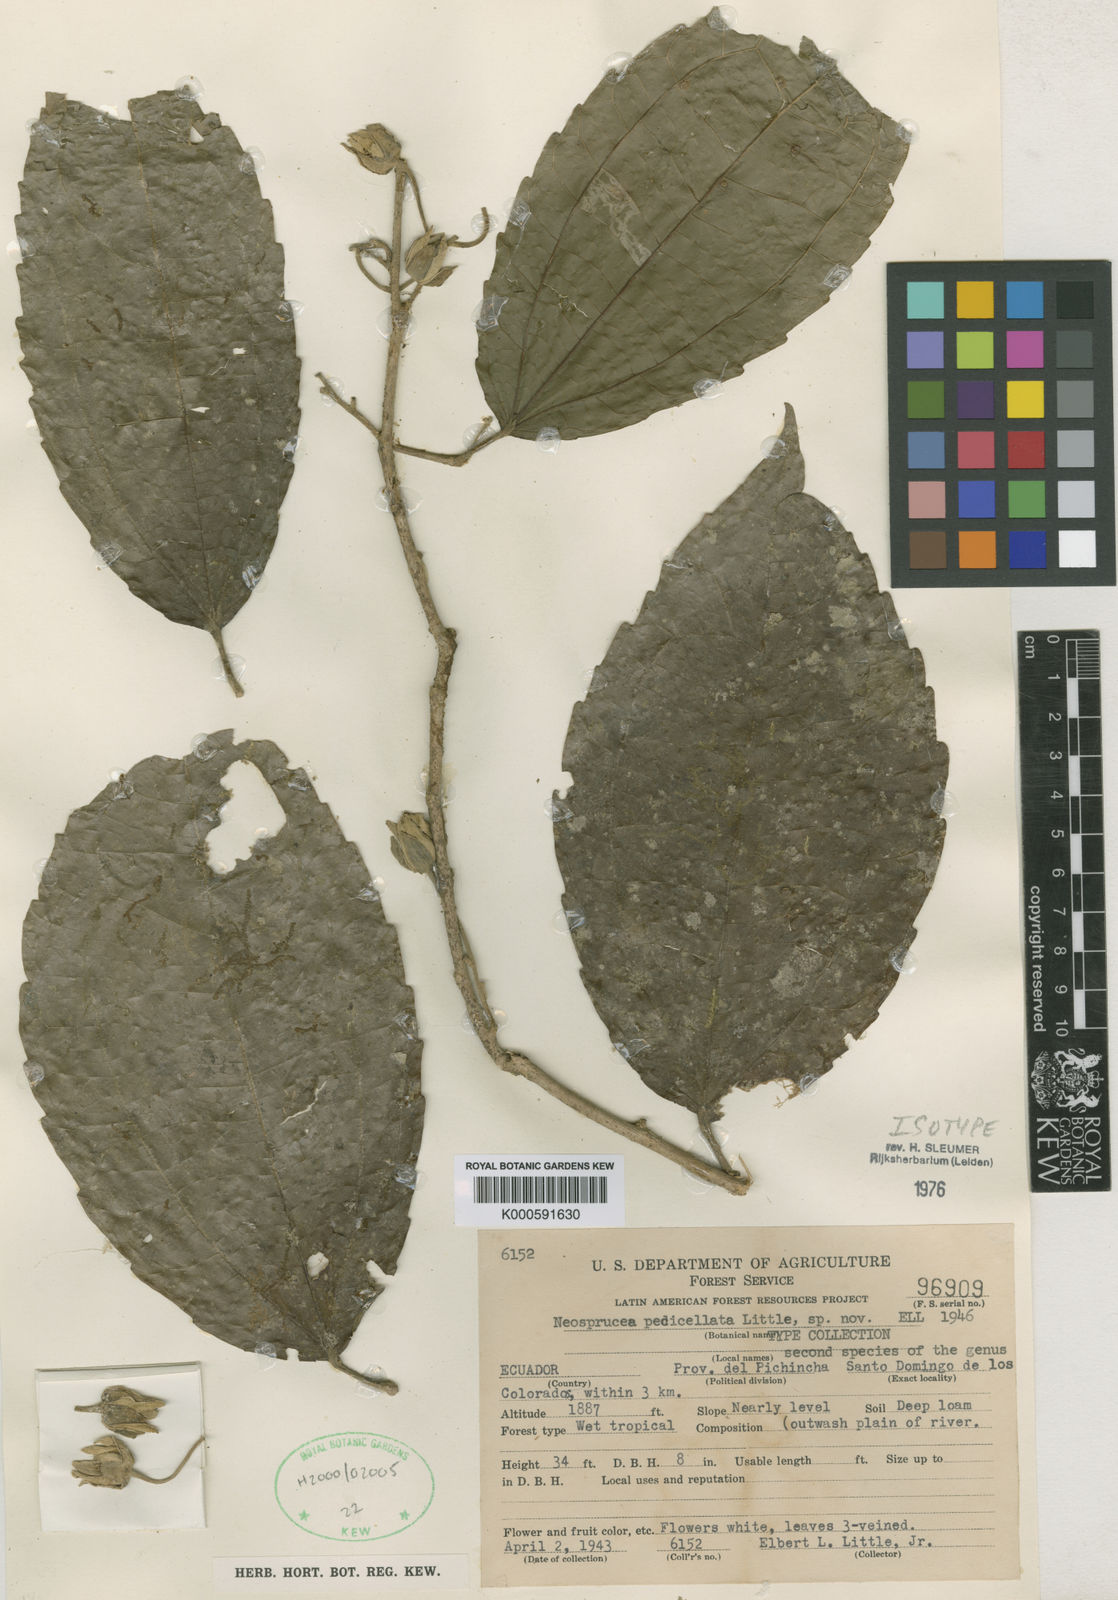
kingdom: Plantae
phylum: Tracheophyta
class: Magnoliopsida
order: Malpighiales
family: Salicaceae
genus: Neosprucea
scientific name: Neosprucea pedicellata
